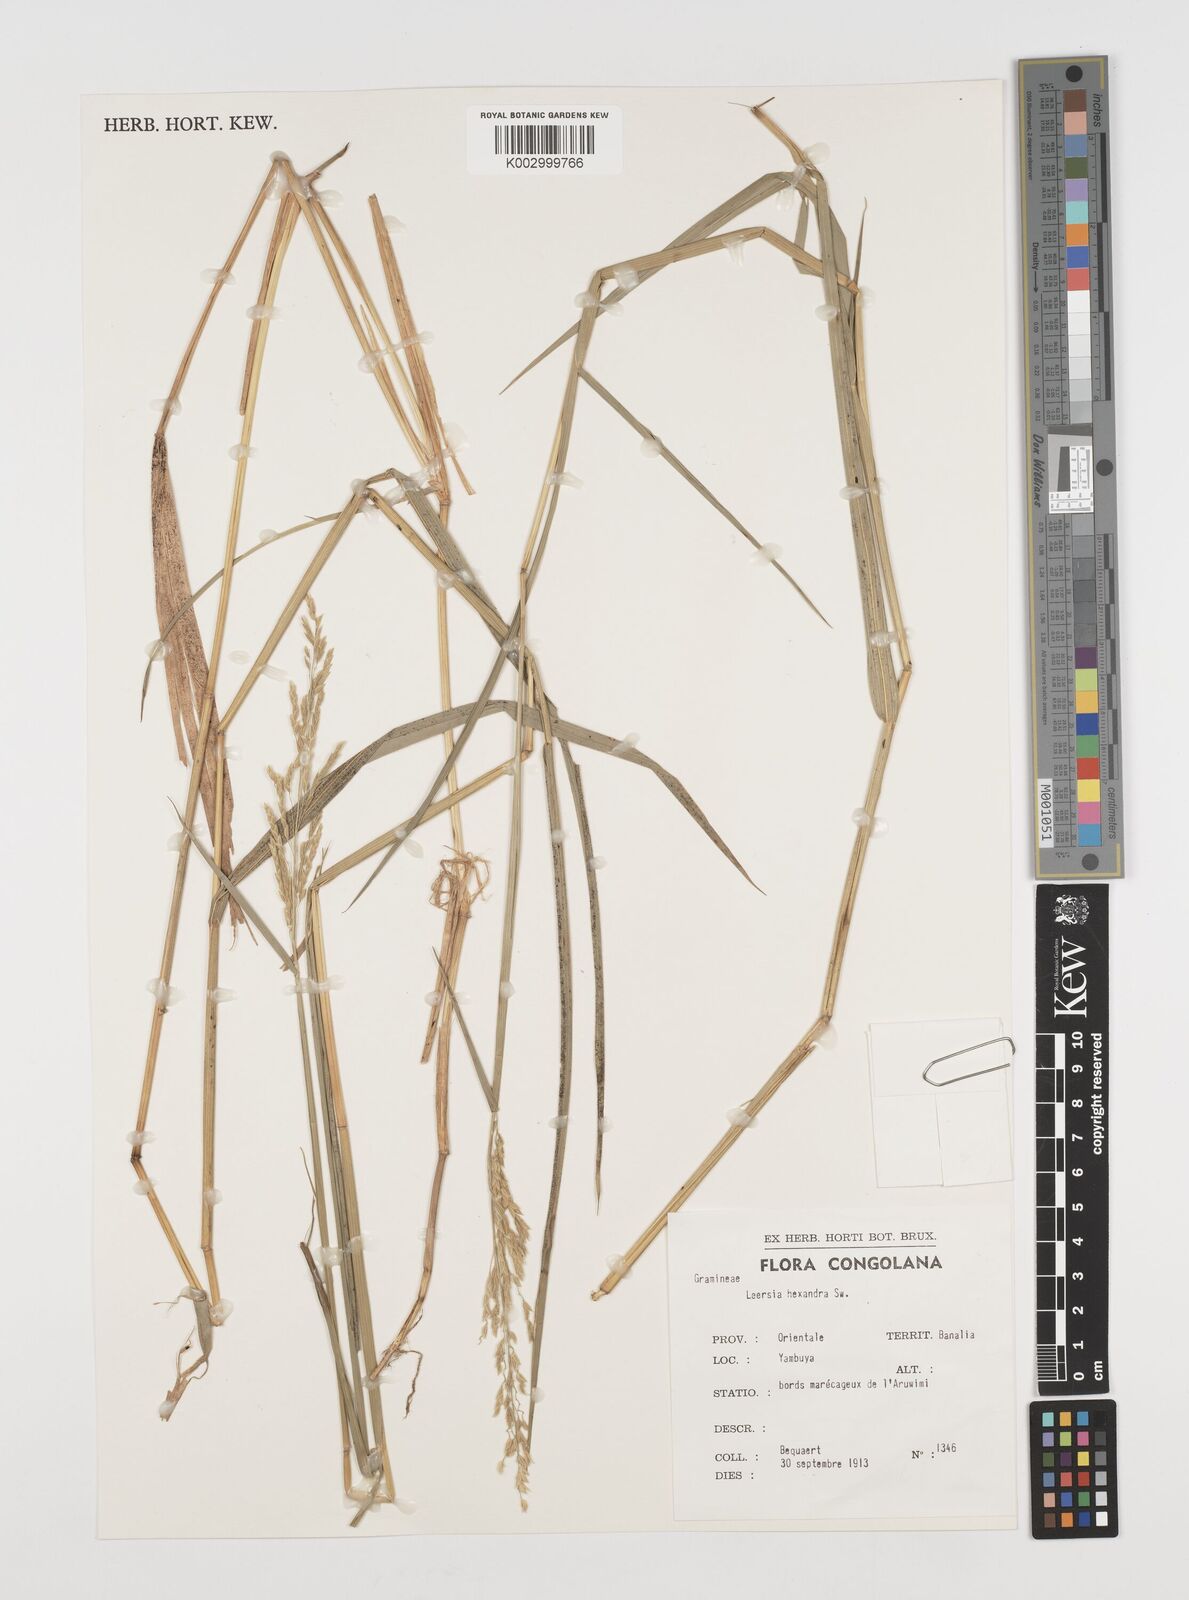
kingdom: Plantae
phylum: Tracheophyta
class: Liliopsida
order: Poales
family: Poaceae
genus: Leersia
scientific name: Leersia hexandra
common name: Southern cut grass
